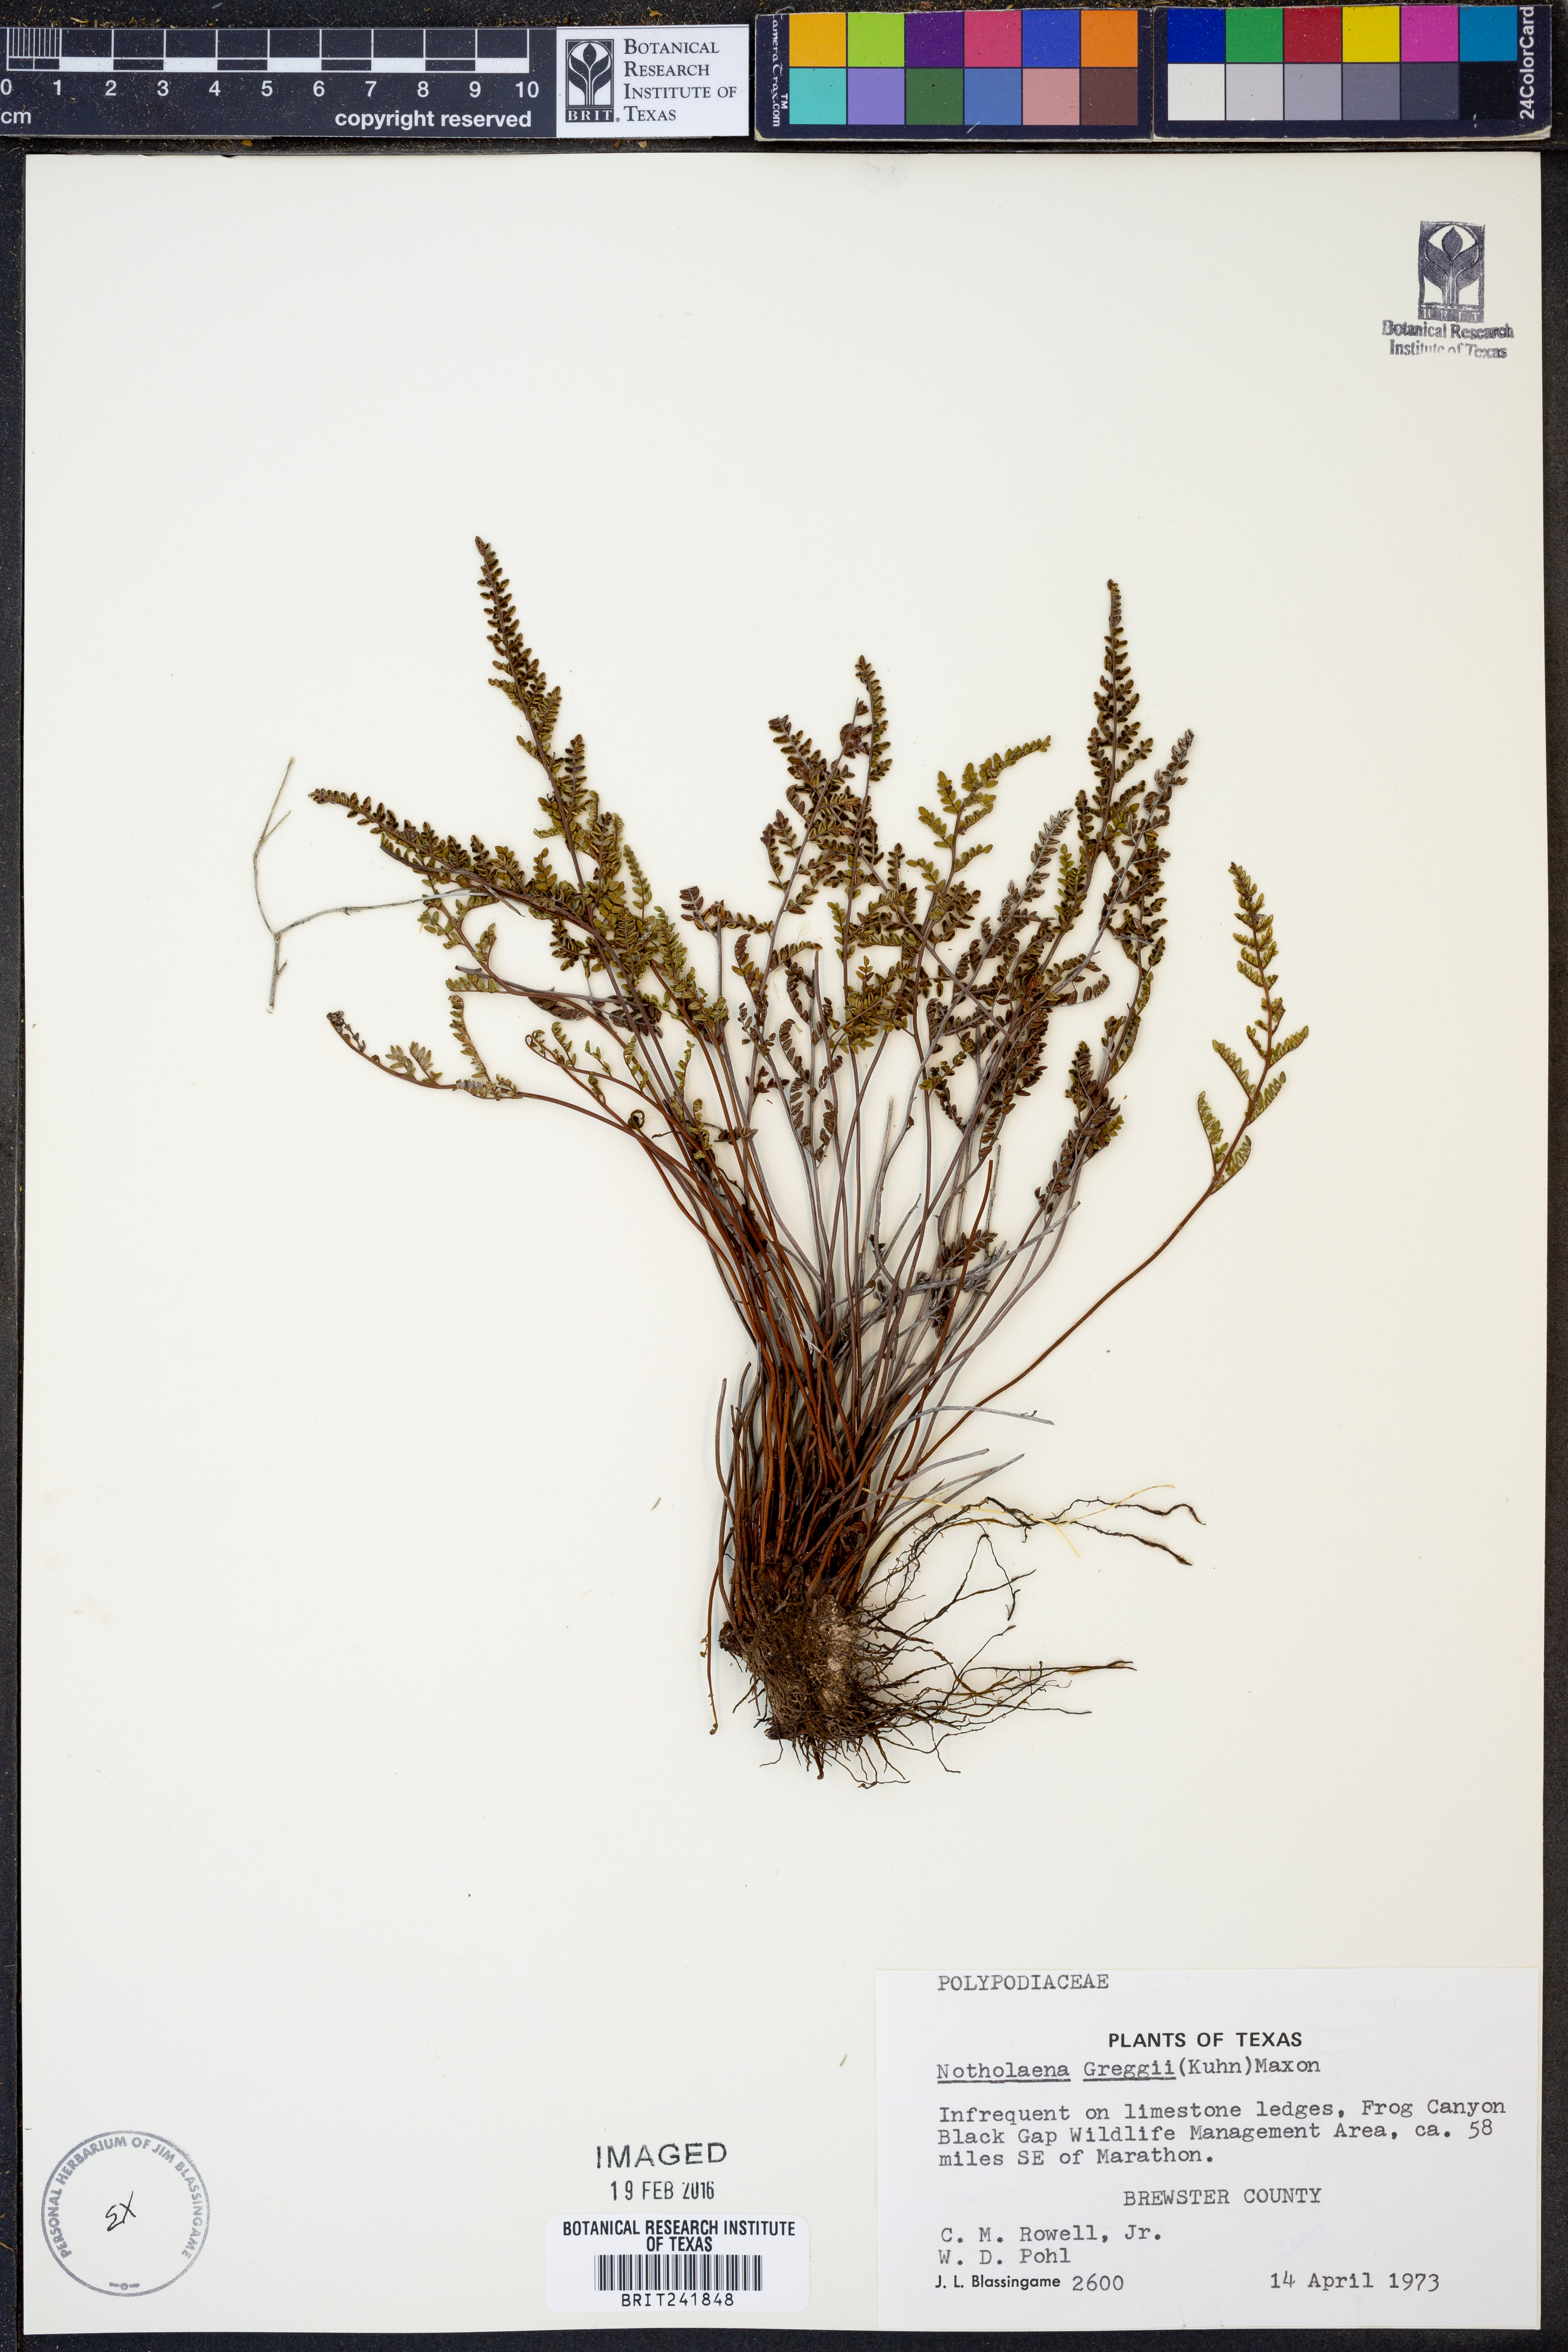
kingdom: Plantae
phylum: Tracheophyta
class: Polypodiopsida
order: Polypodiales
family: Pteridaceae
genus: Notholaena
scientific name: Notholaena greggii
